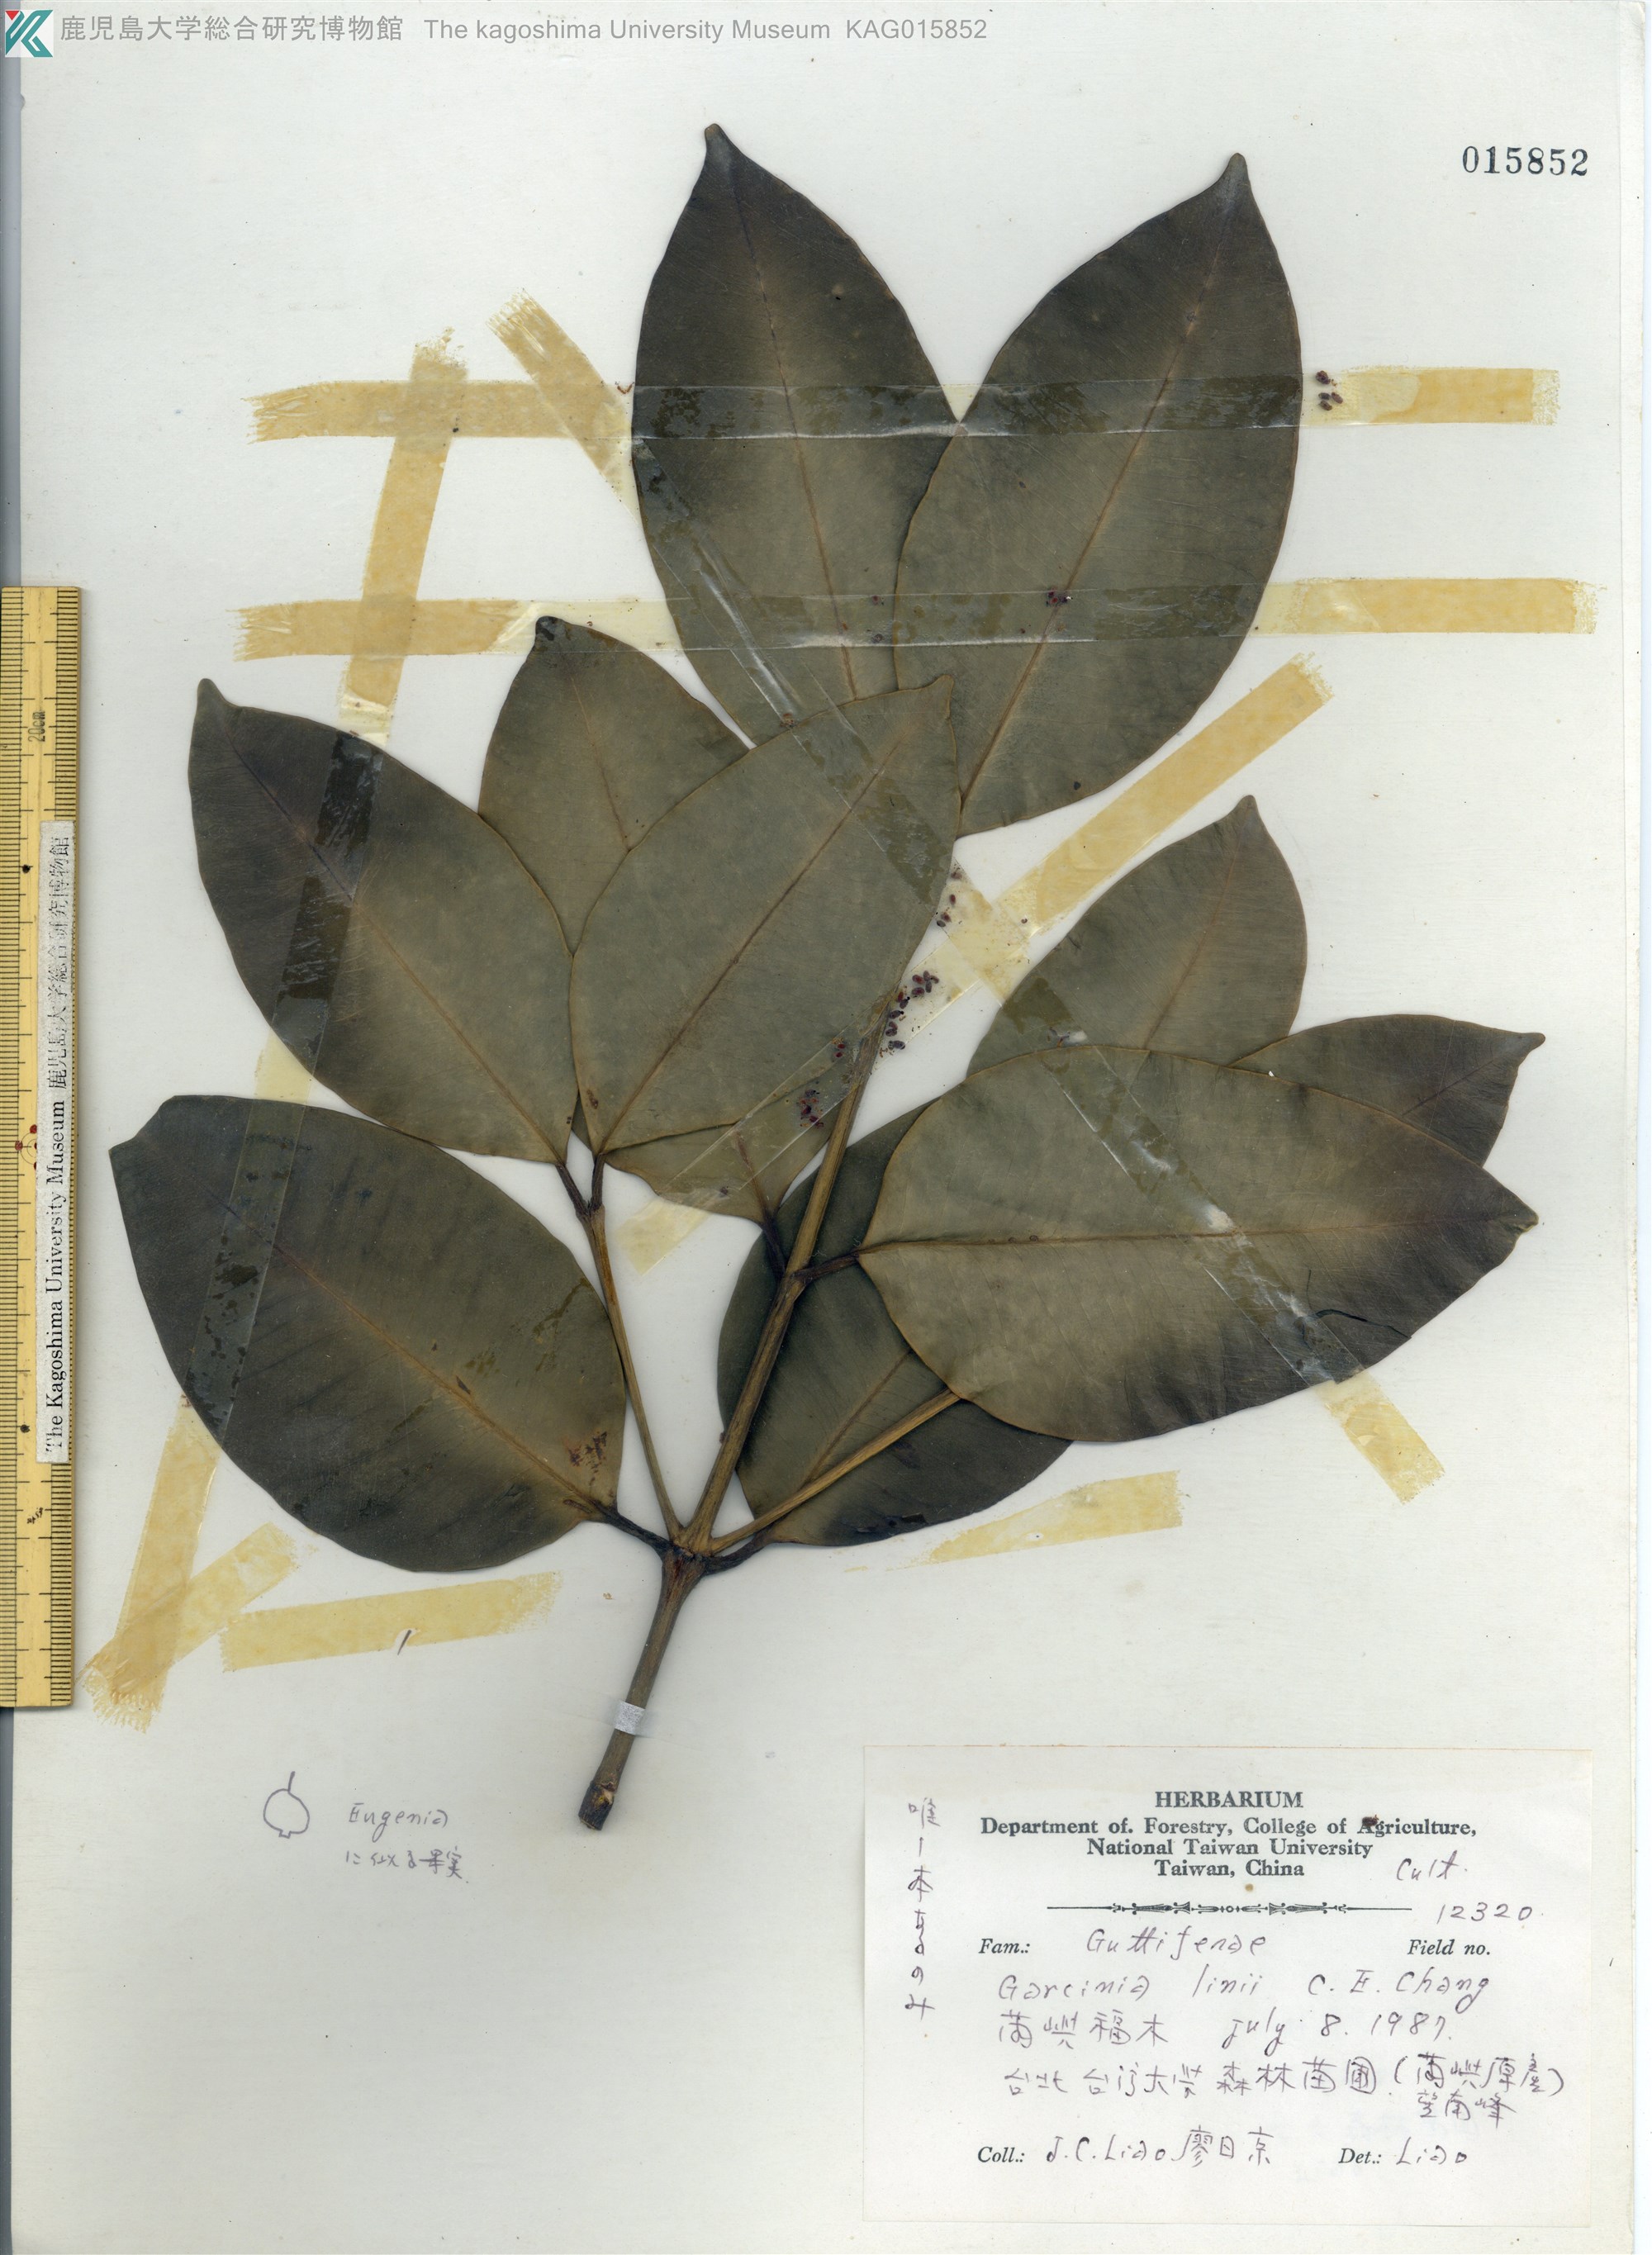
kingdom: Plantae
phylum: Tracheophyta
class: Magnoliopsida
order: Malpighiales
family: Clusiaceae
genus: Garcinia
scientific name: Garcinia linii
